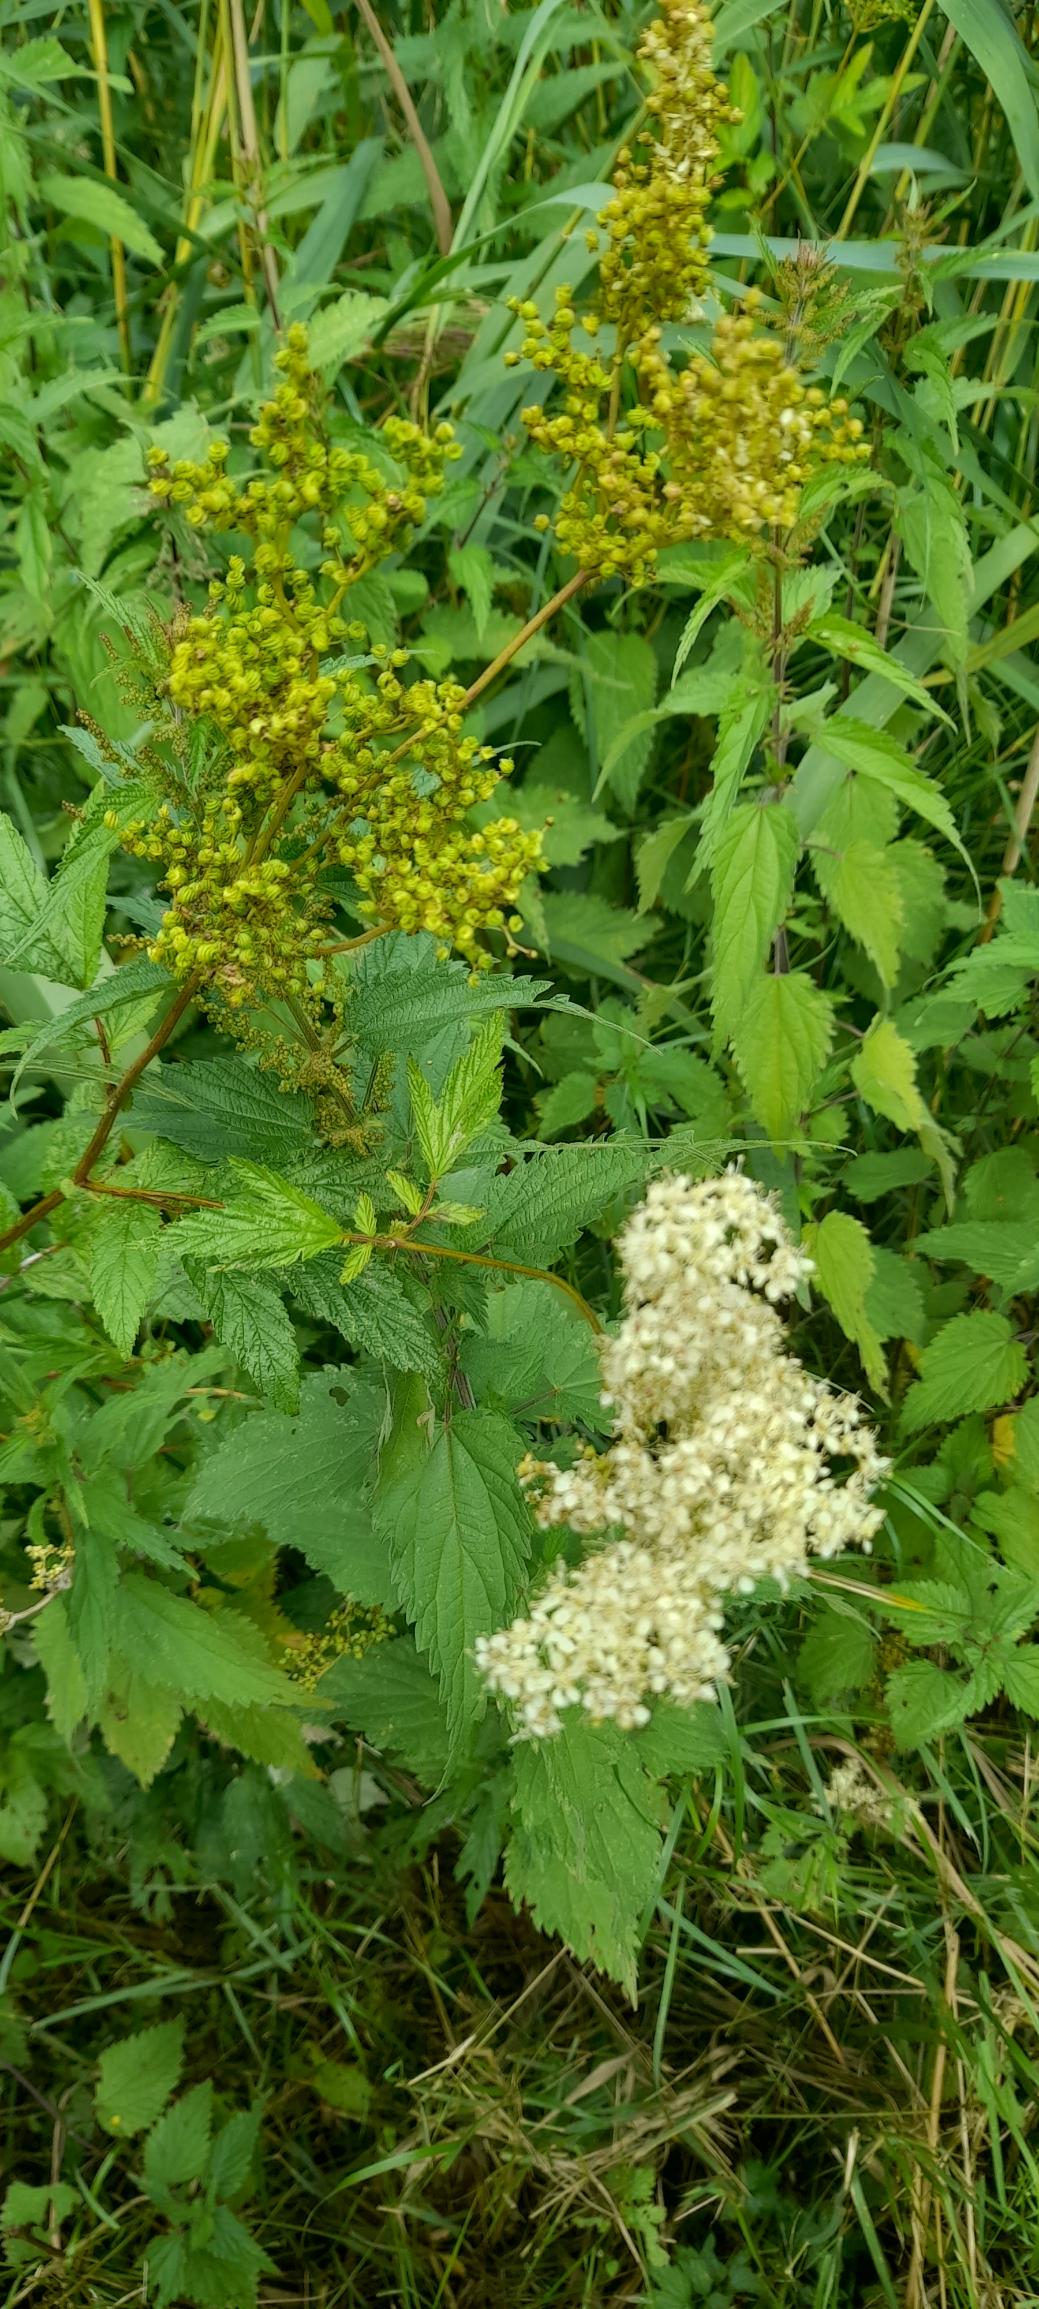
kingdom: Plantae
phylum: Tracheophyta
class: Magnoliopsida
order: Rosales
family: Rosaceae
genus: Filipendula
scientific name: Filipendula ulmaria
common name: Almindelig mjødurt
